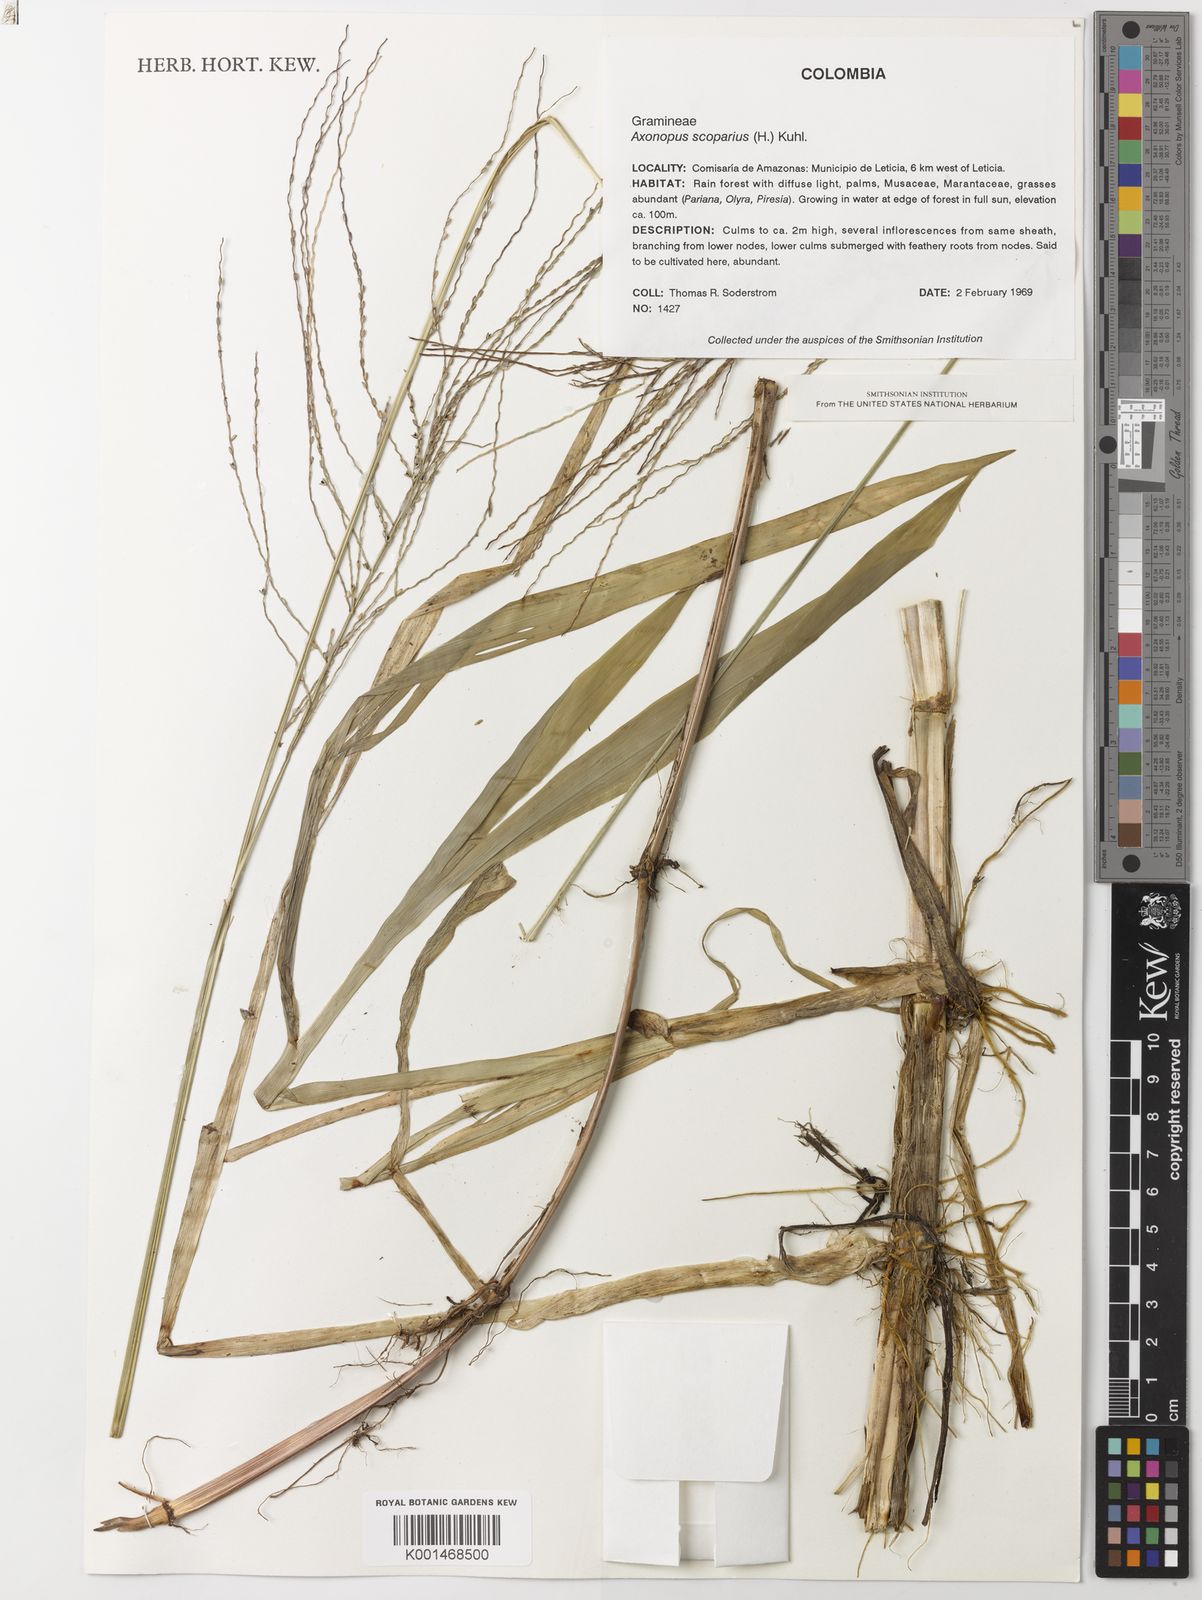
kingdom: Plantae
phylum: Tracheophyta
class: Liliopsida
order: Poales
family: Poaceae
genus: Axonopus
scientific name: Axonopus scoparius
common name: Imperial grass
